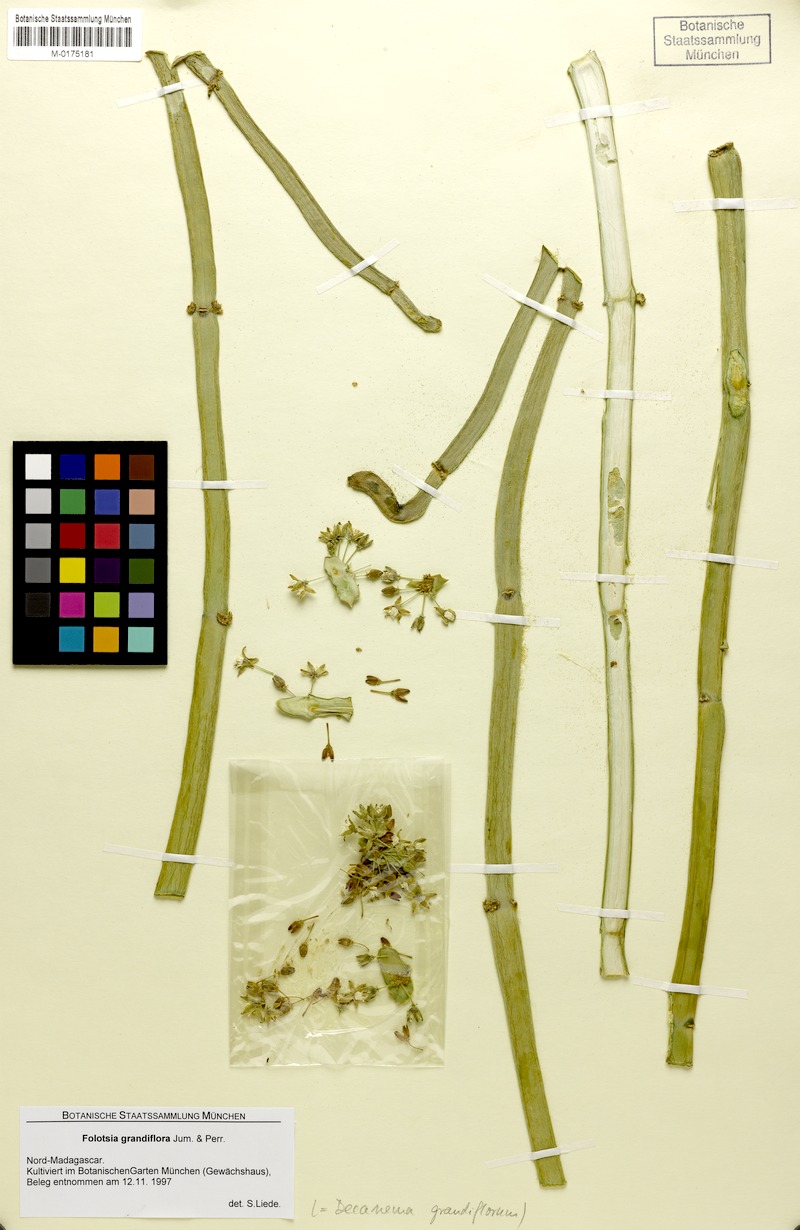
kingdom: Plantae
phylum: Tracheophyta
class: Magnoliopsida
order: Gentianales
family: Apocynaceae
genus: Cynanchum
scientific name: Cynanchum grandidieri
